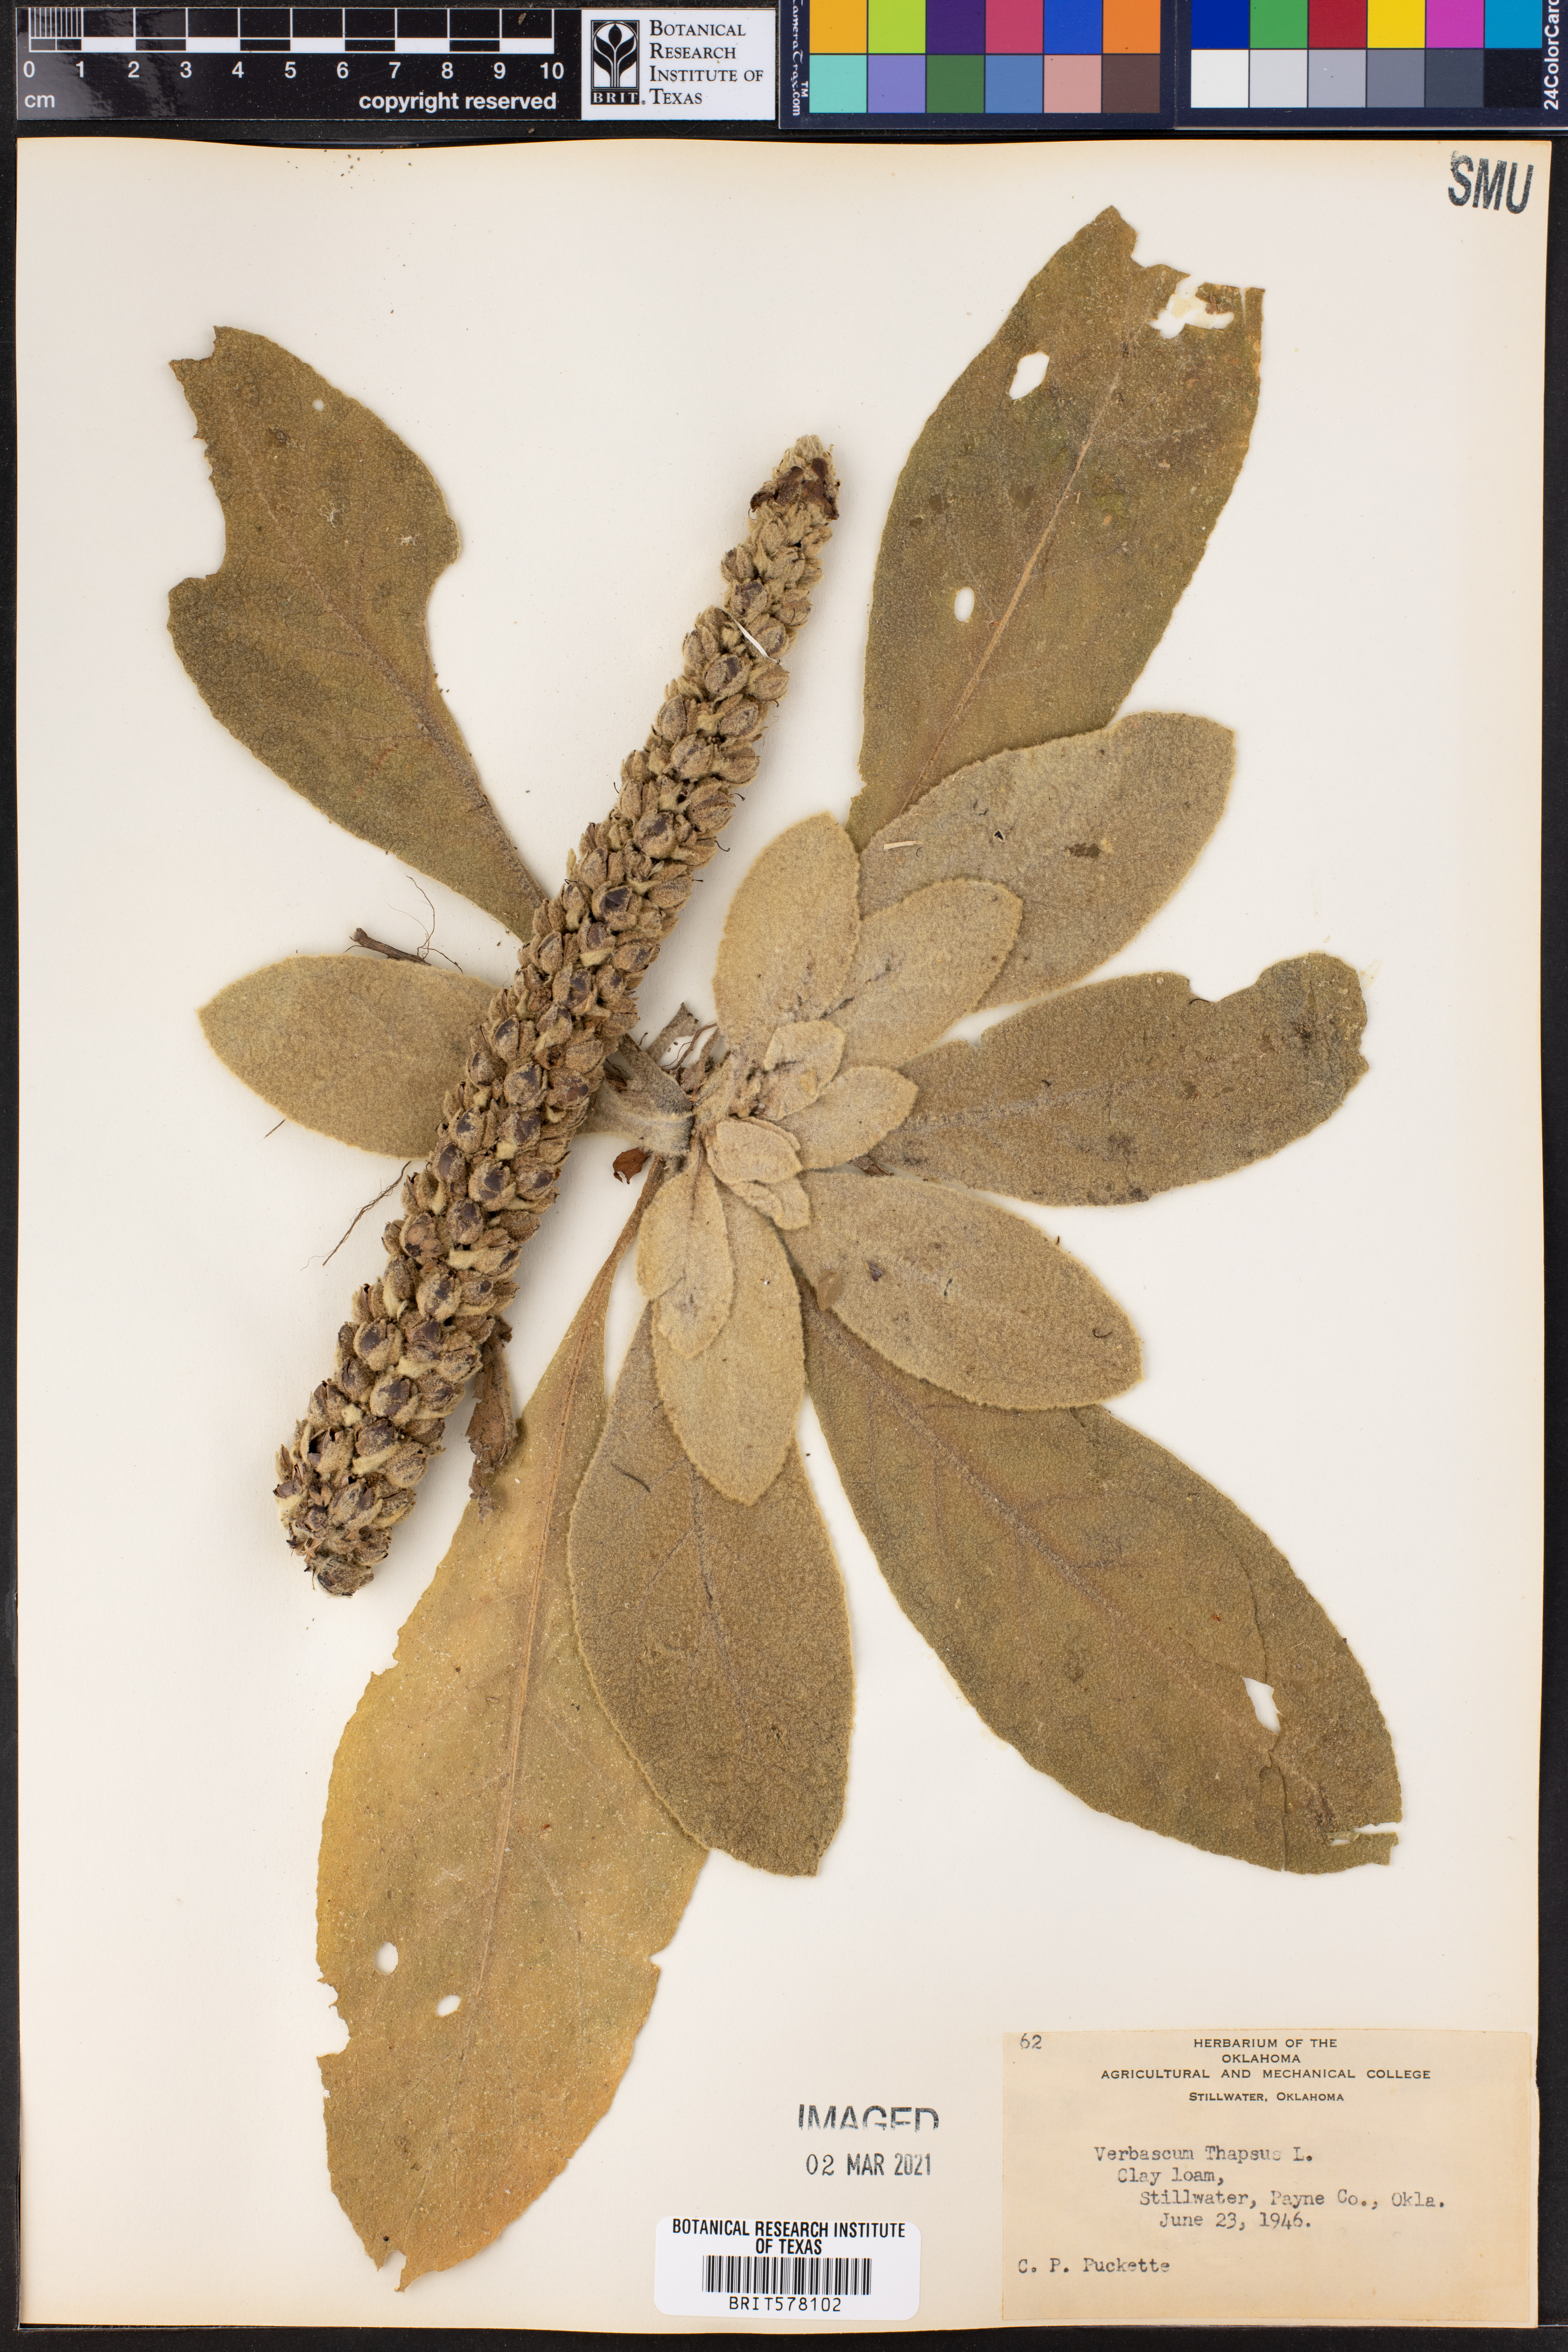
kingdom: Plantae
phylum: Tracheophyta
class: Magnoliopsida
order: Lamiales
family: Scrophulariaceae
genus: Verbascum
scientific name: Verbascum thapsus
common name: Common mullein
